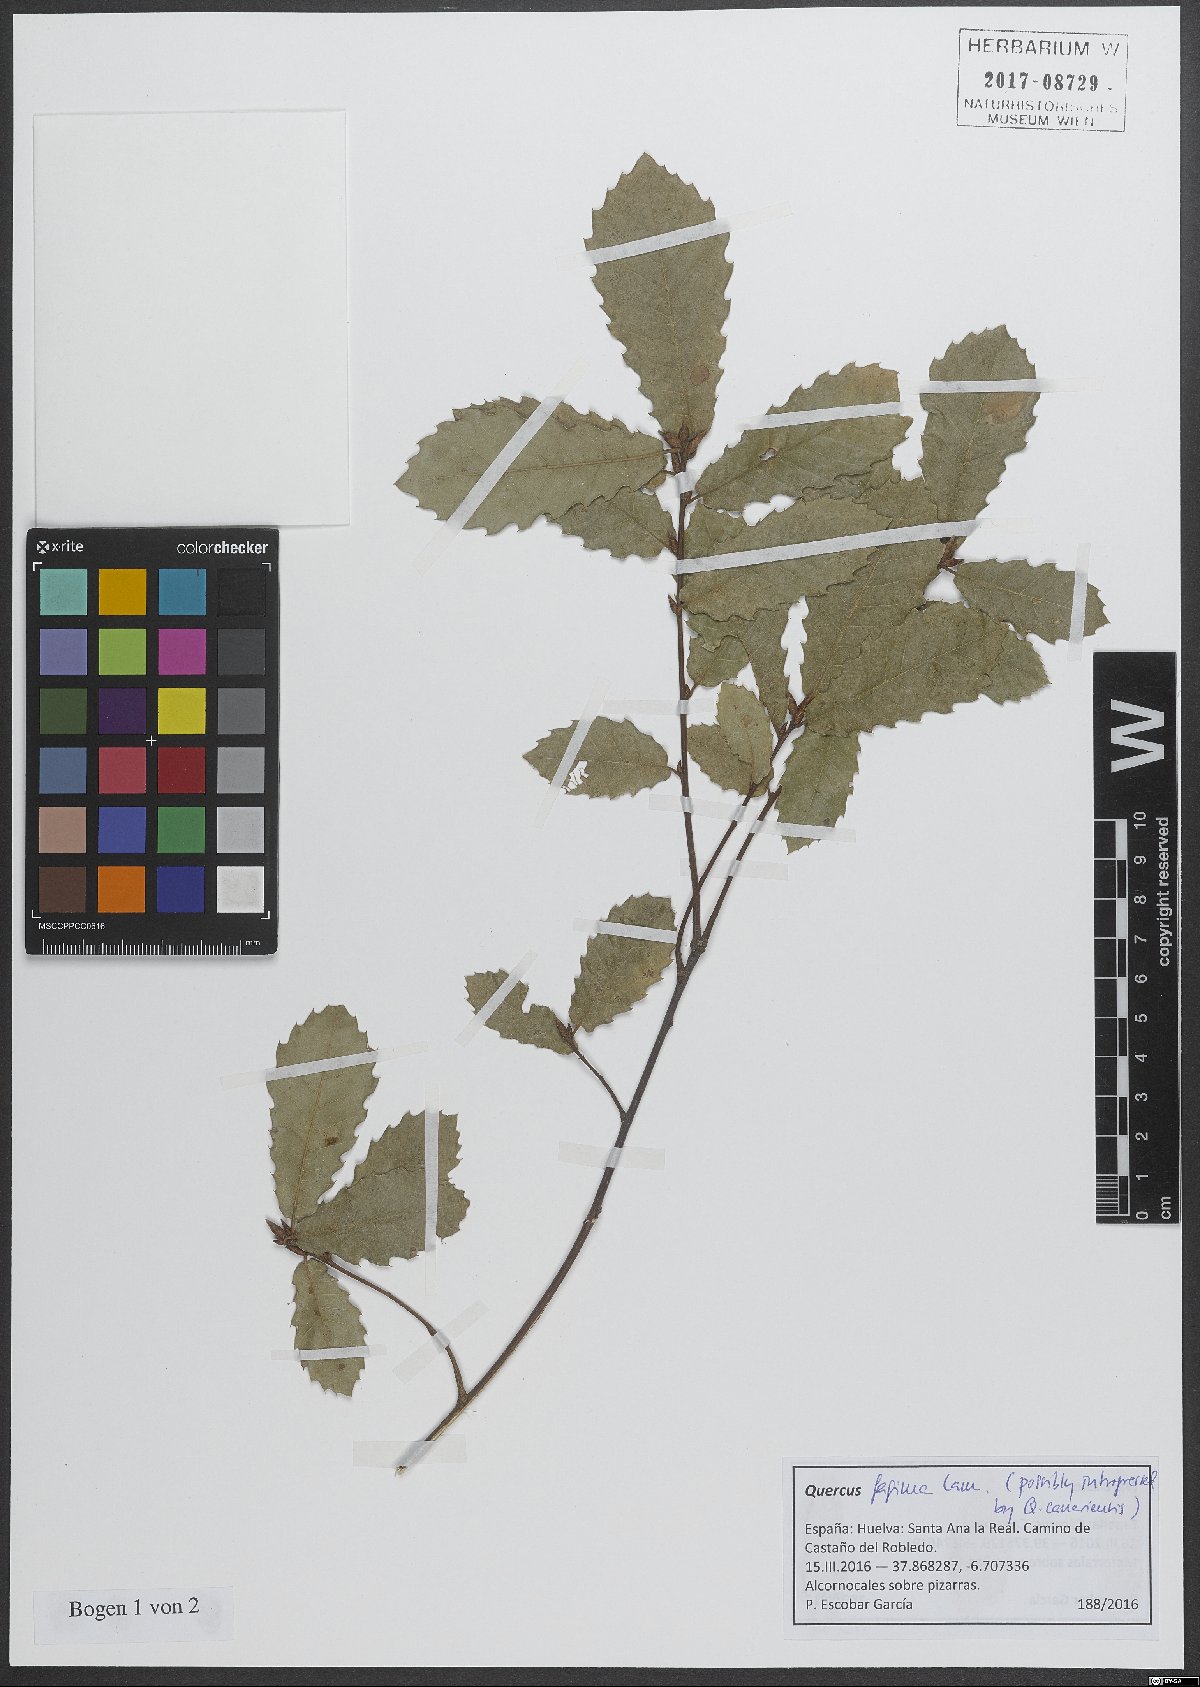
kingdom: Plantae
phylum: Tracheophyta
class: Magnoliopsida
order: Fagales
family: Fagaceae
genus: Quercus
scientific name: Quercus faginea
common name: Gall oak tree
